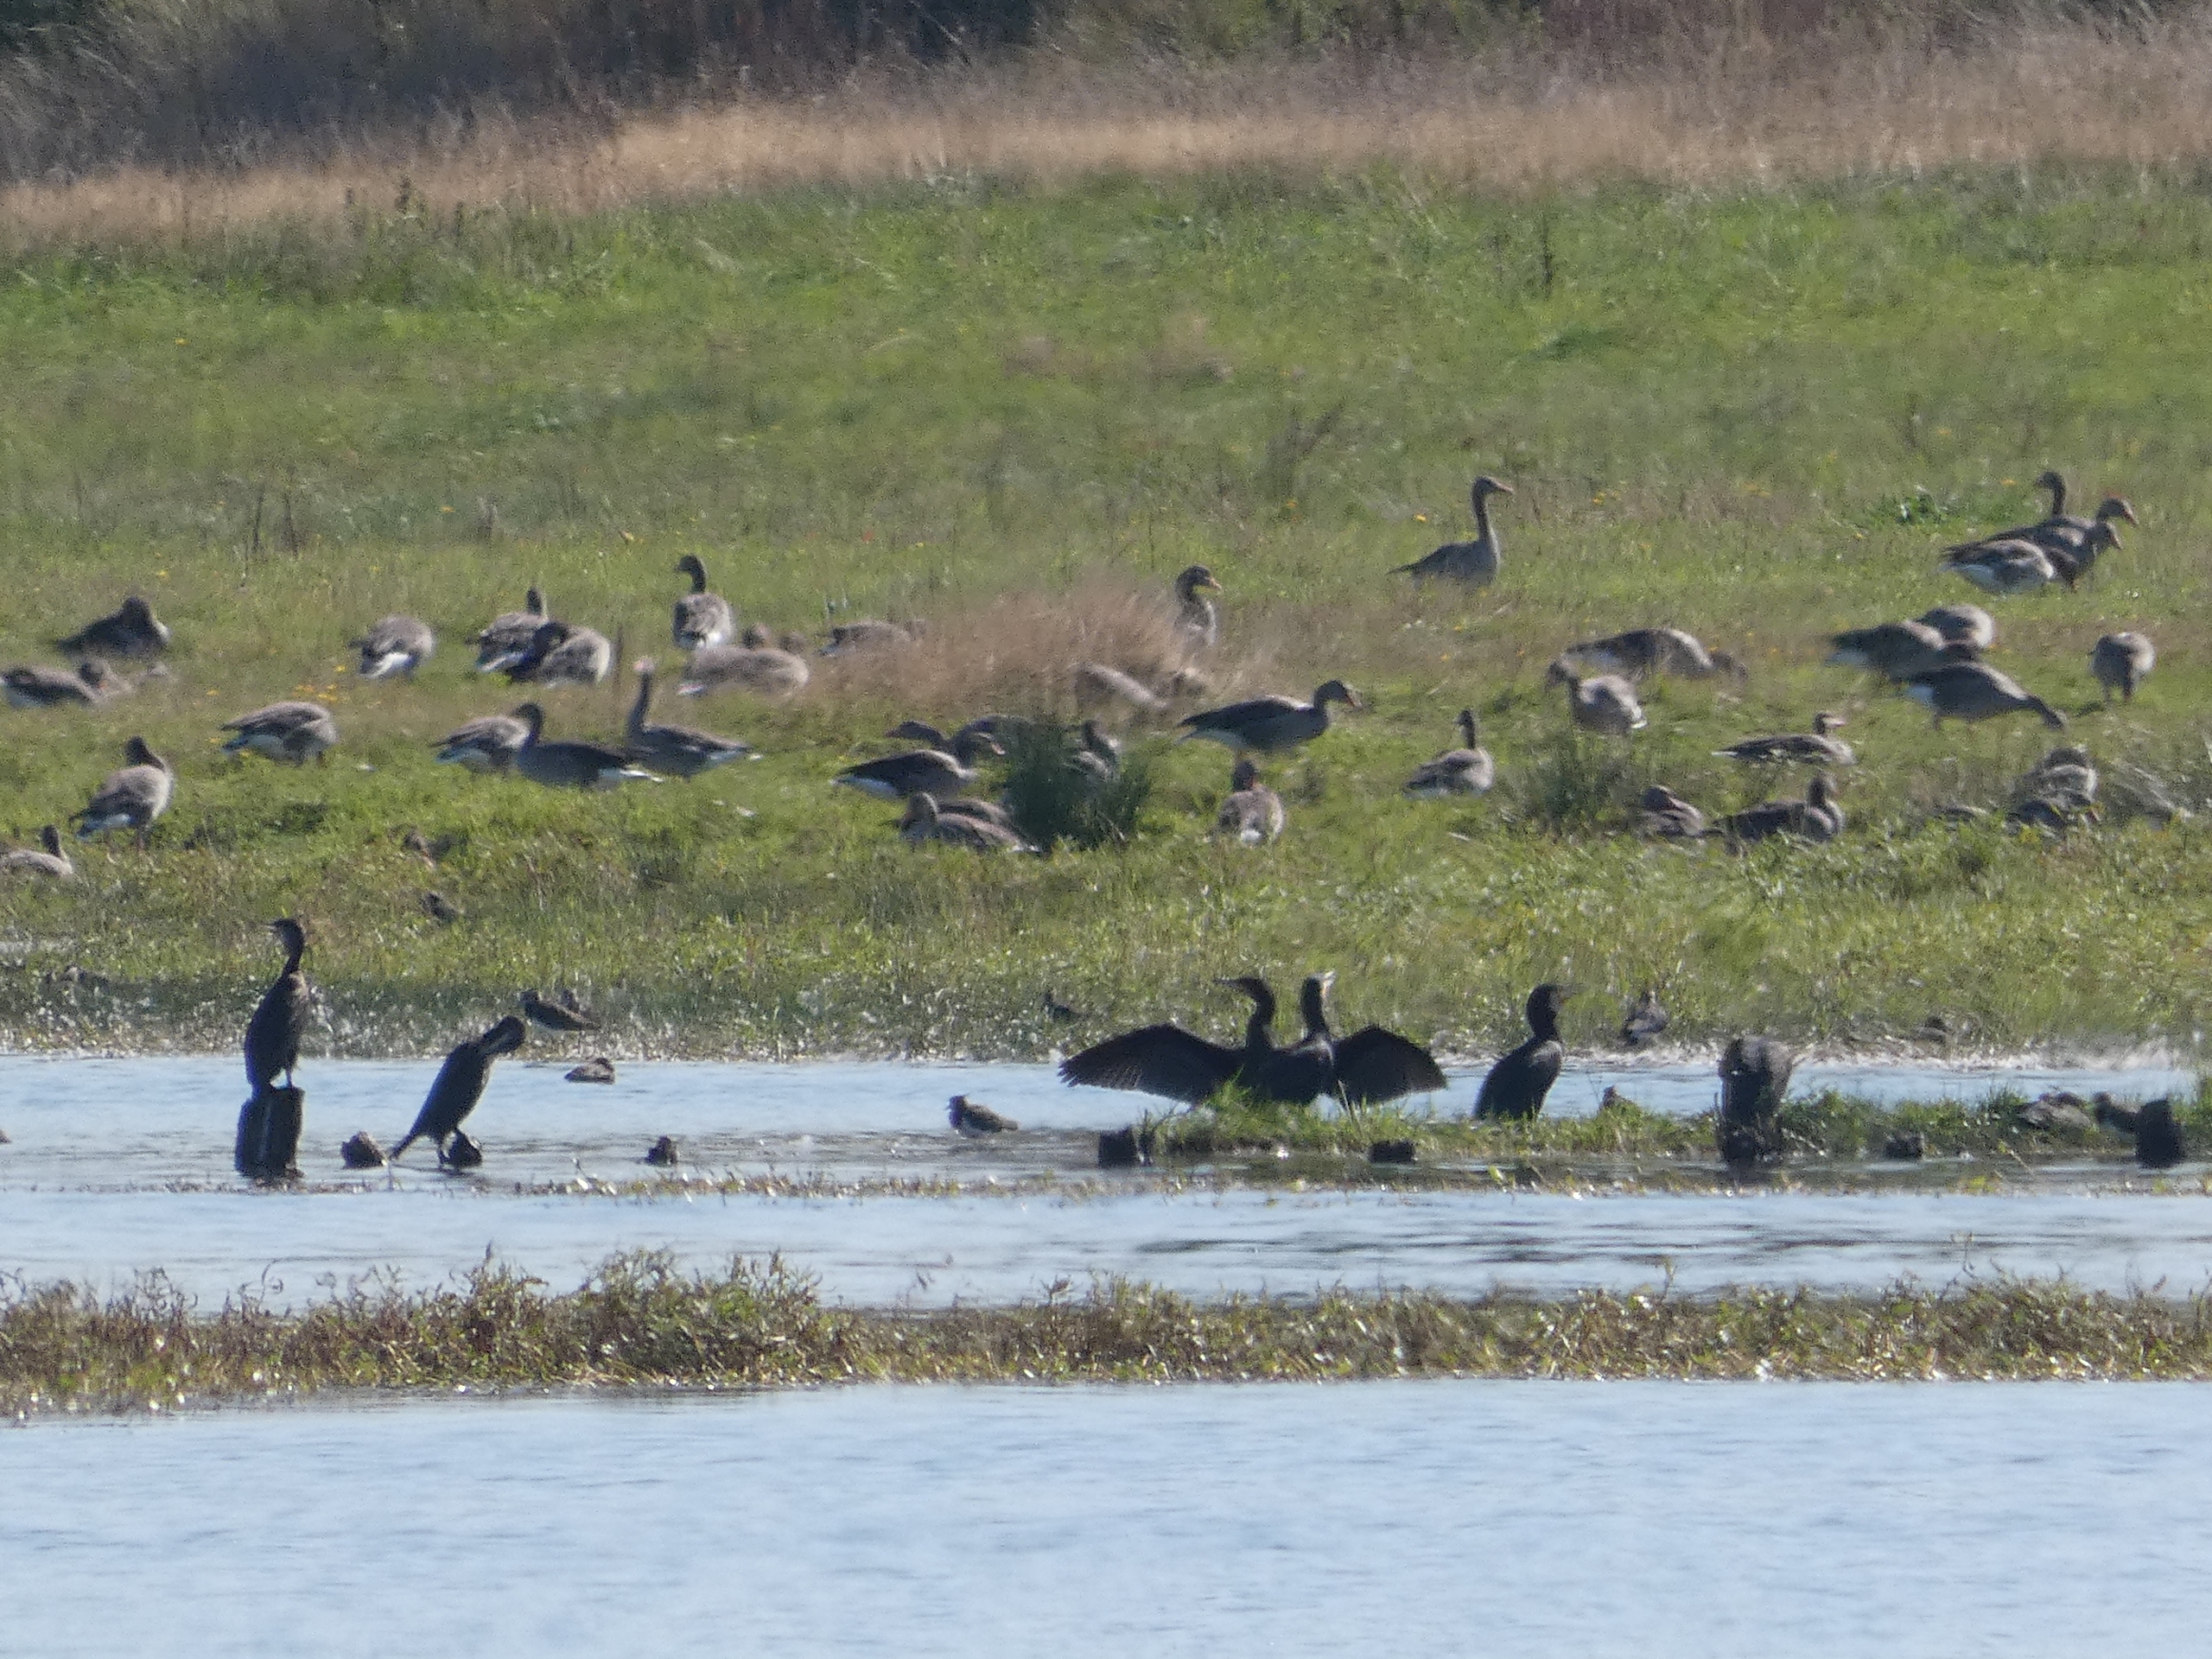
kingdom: Animalia
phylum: Chordata
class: Aves
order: Suliformes
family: Phalacrocoracidae
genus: Phalacrocorax
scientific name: Phalacrocorax carbo
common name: Skarv
